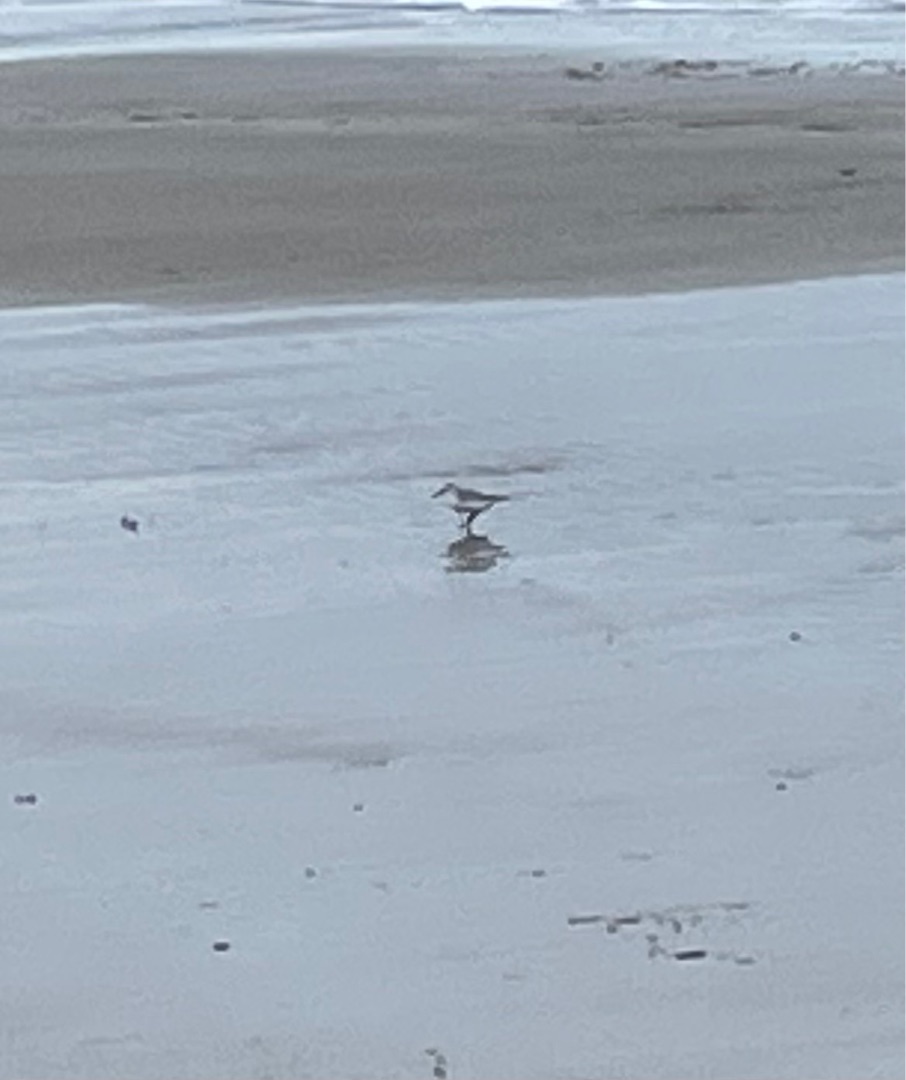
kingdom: Animalia
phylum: Chordata
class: Aves
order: Charadriiformes
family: Scolopacidae
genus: Calidris
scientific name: Calidris alba
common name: Sandløber
